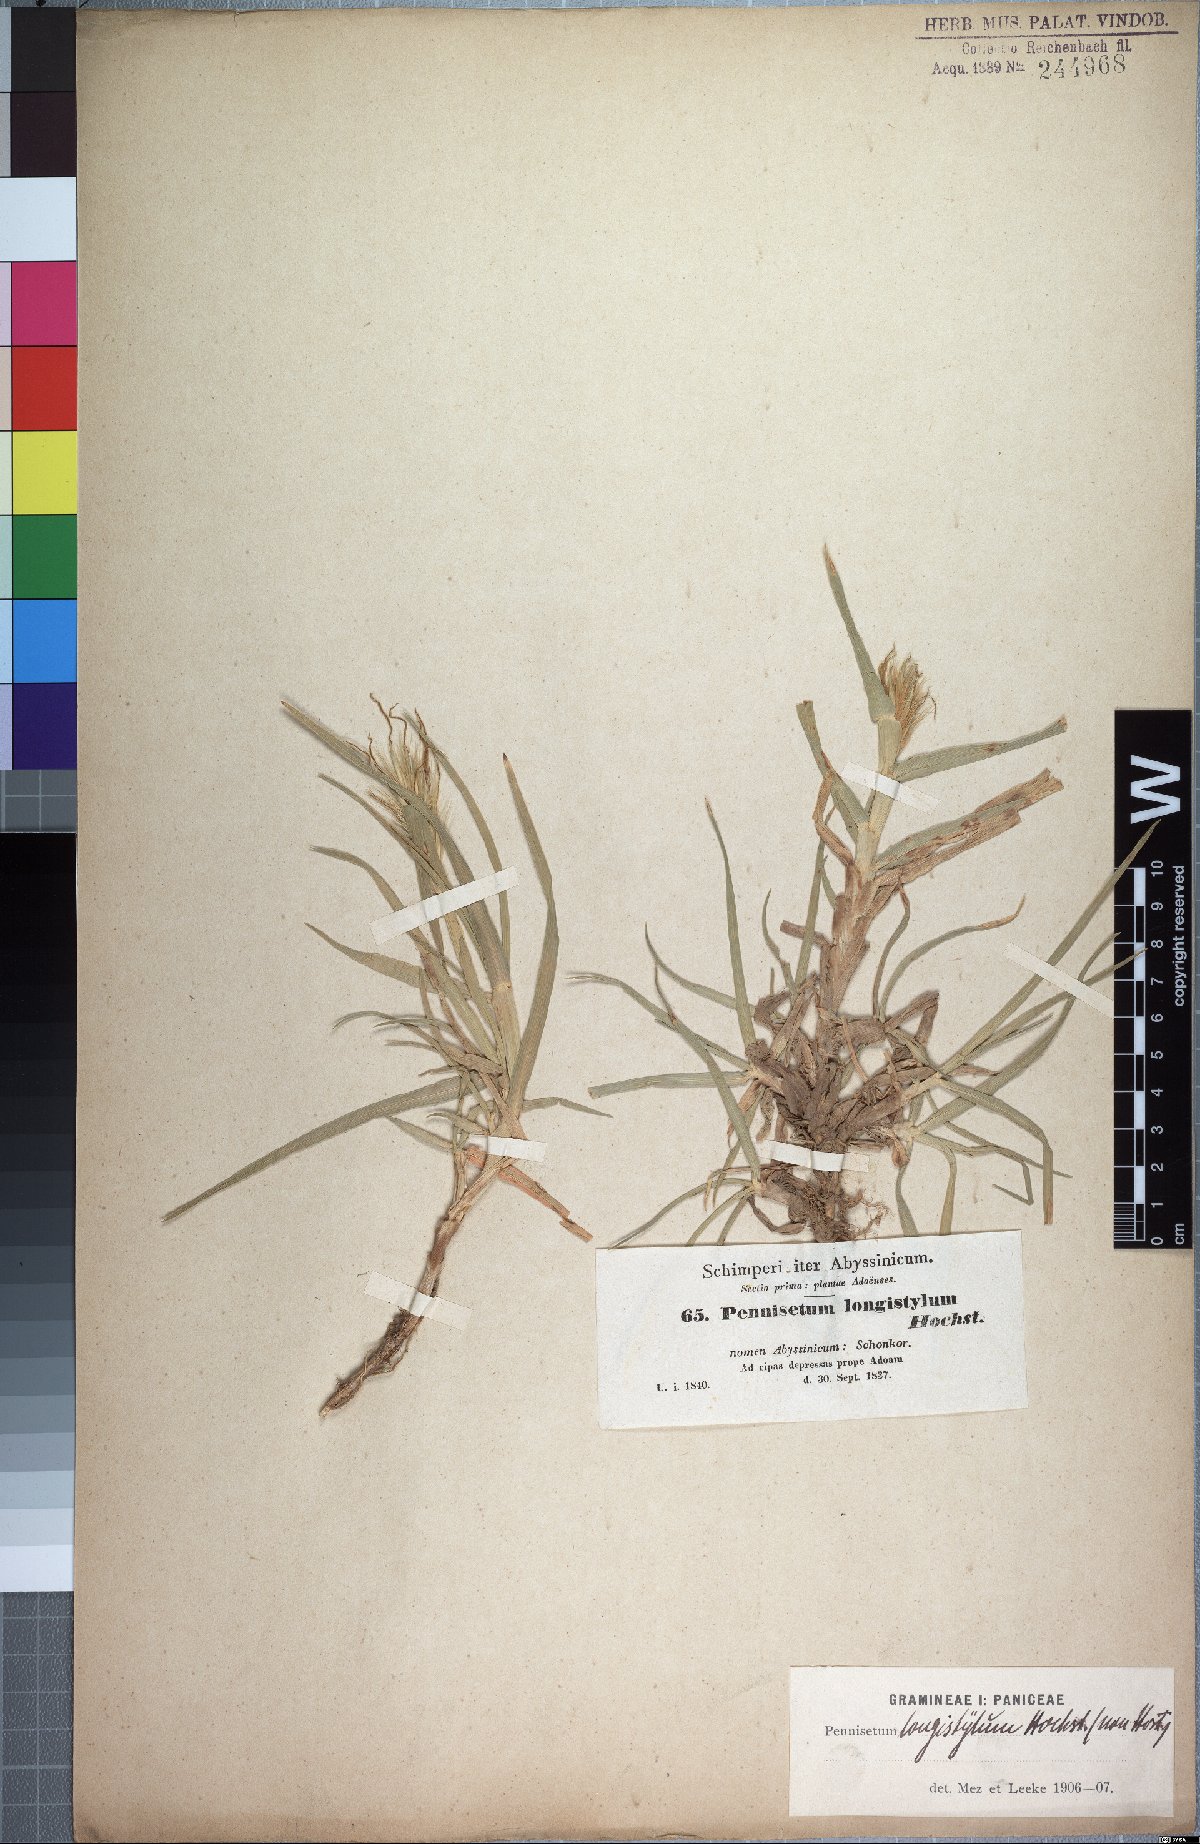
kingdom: Plantae
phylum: Tracheophyta
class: Liliopsida
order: Poales
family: Poaceae
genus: Cenchrus
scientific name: Cenchrus longistylus
